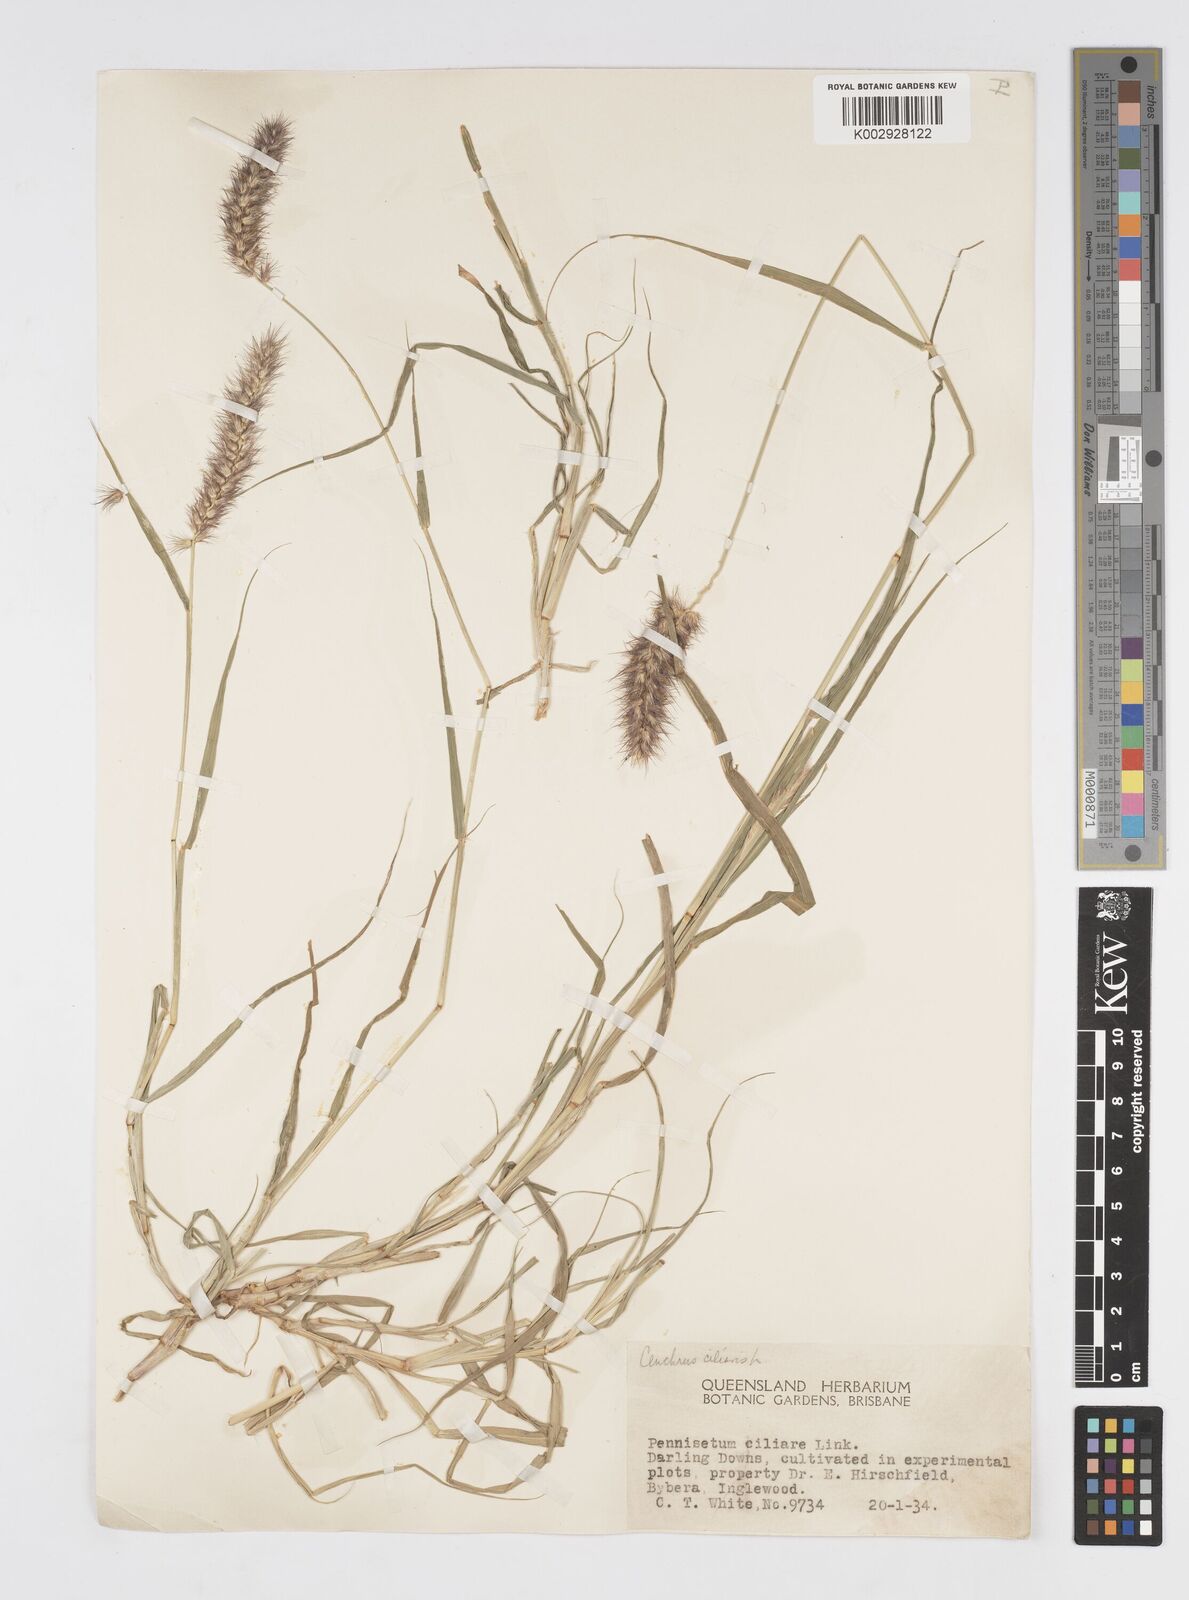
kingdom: Plantae
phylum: Tracheophyta
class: Liliopsida
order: Poales
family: Poaceae
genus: Cenchrus
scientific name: Cenchrus ciliaris
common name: Buffelgrass
